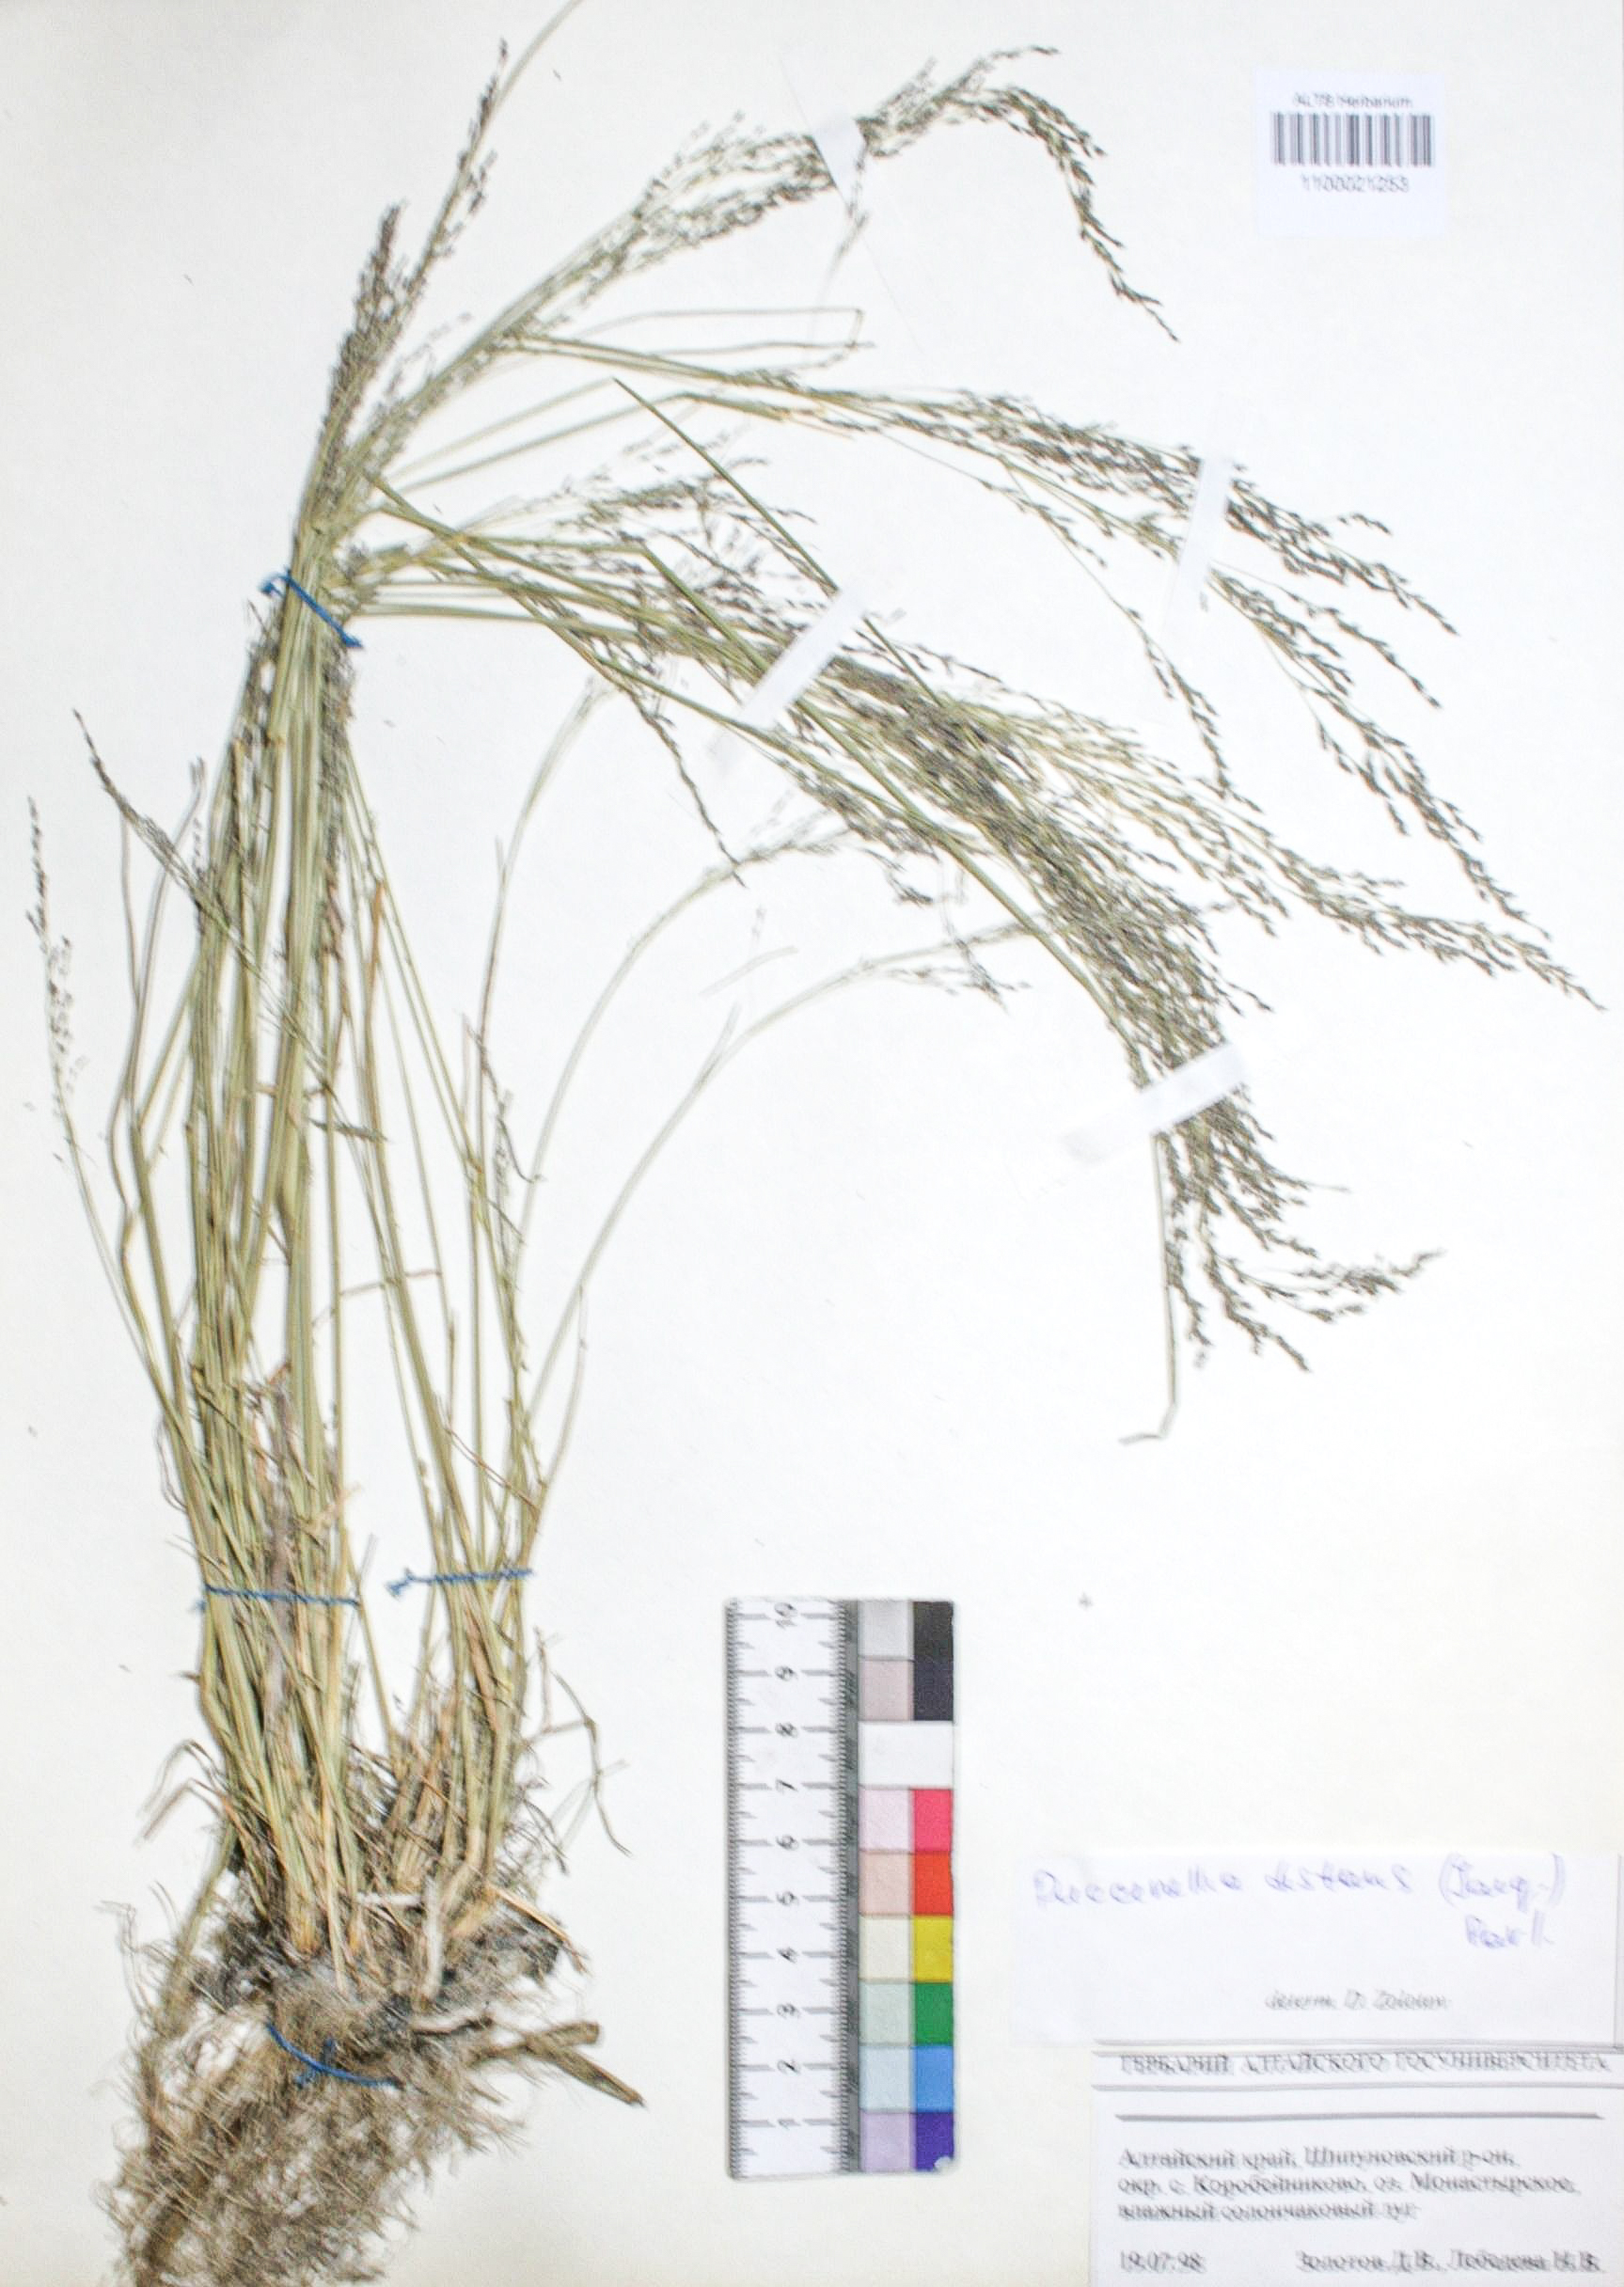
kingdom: Plantae
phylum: Tracheophyta
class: Liliopsida
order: Poales
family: Poaceae
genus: Puccinellia
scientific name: Puccinellia distans
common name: Weeping alkaligrass
